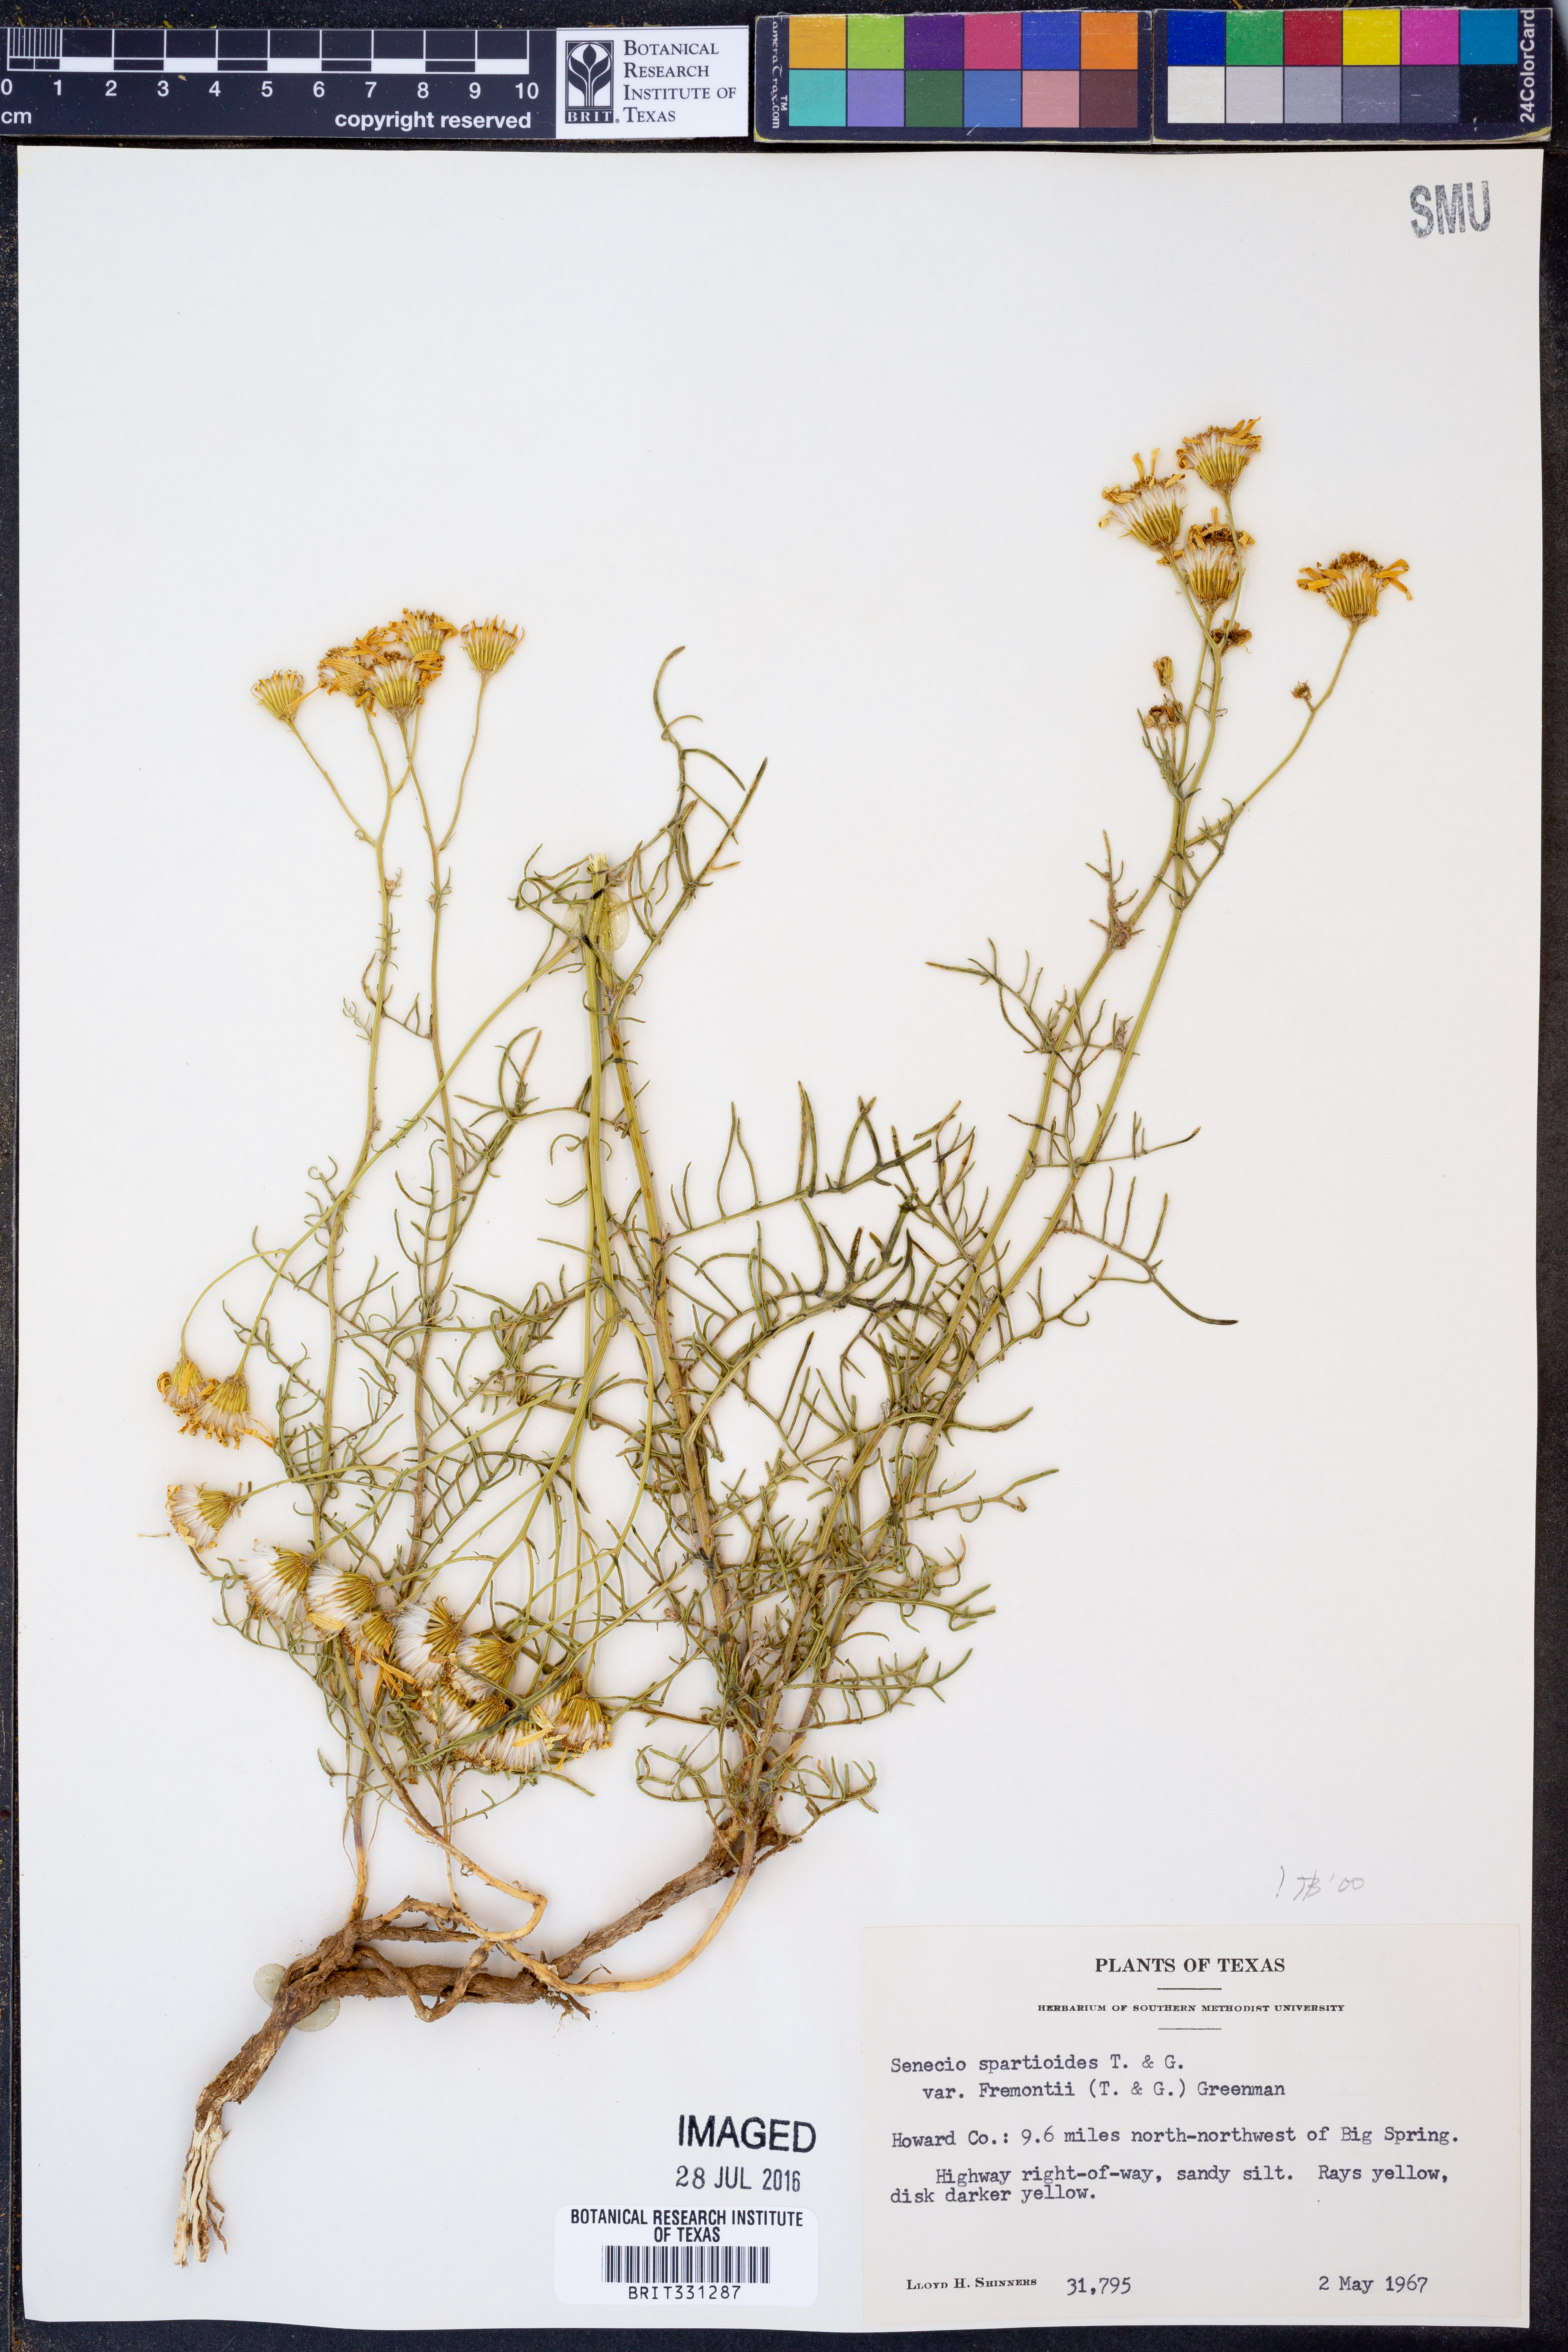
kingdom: Plantae
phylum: Tracheophyta
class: Magnoliopsida
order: Asterales
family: Asteraceae
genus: Senecio
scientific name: Senecio riddellii
